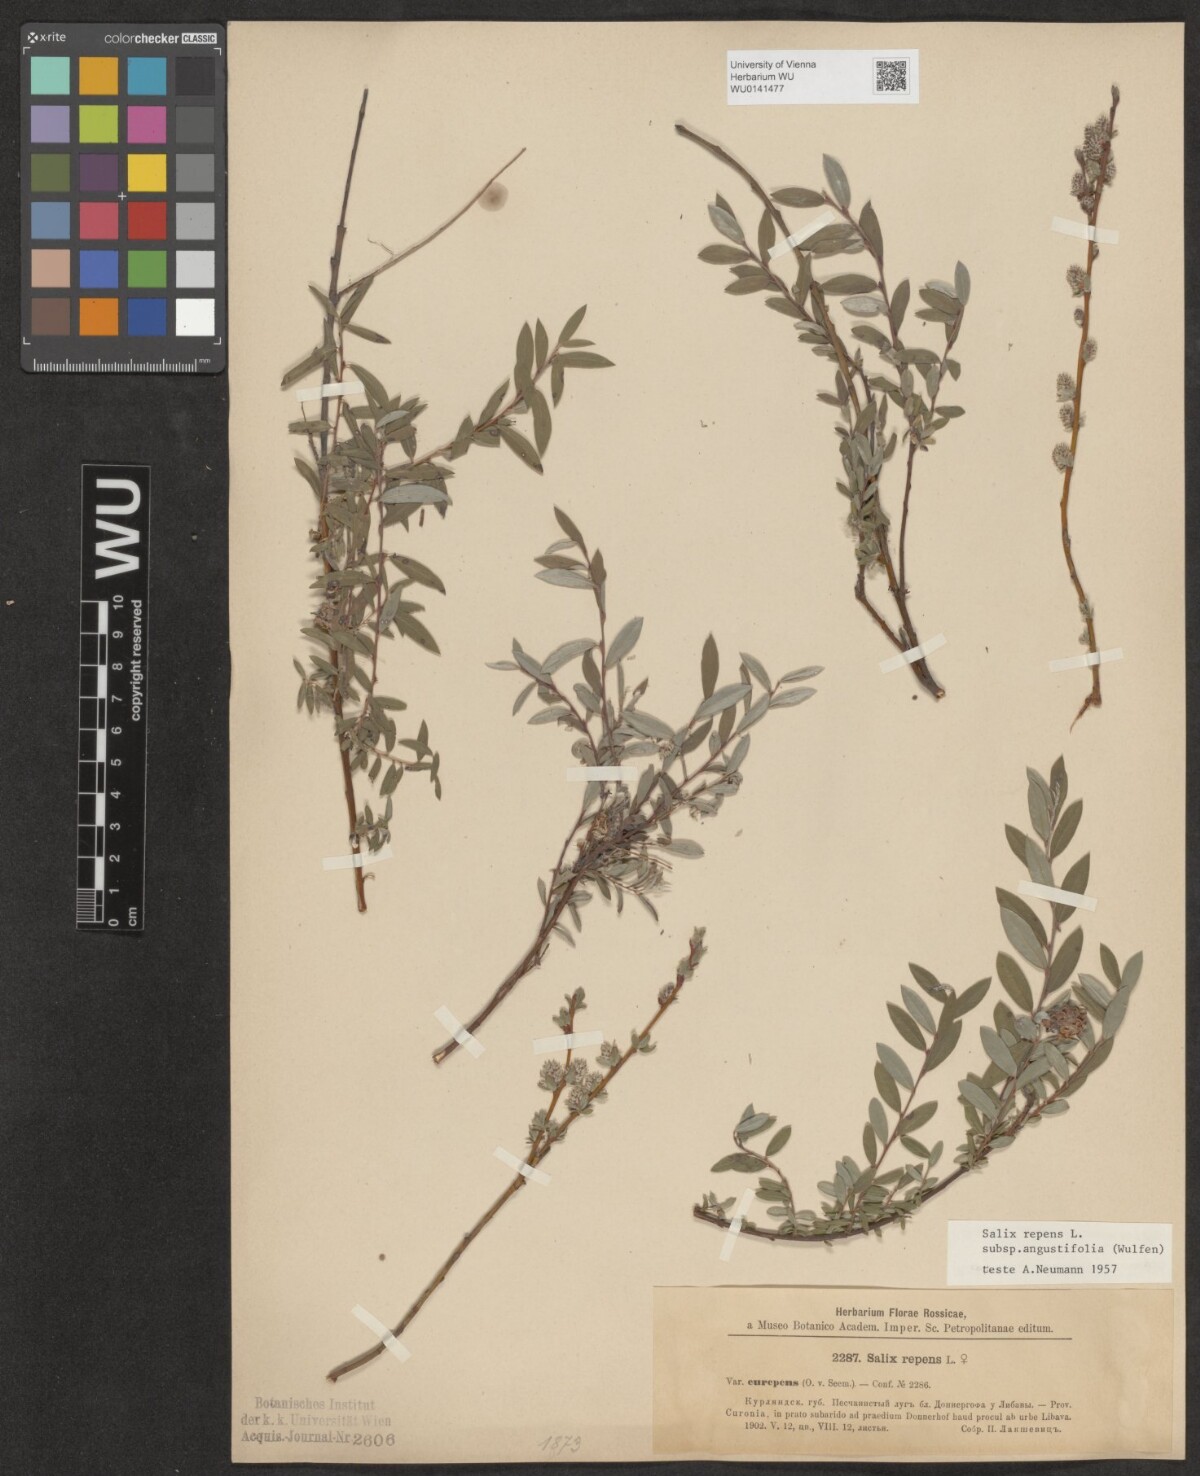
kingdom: Plantae
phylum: Tracheophyta
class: Magnoliopsida
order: Malpighiales
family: Salicaceae
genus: Salix
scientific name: Salix rosmarinifolia
